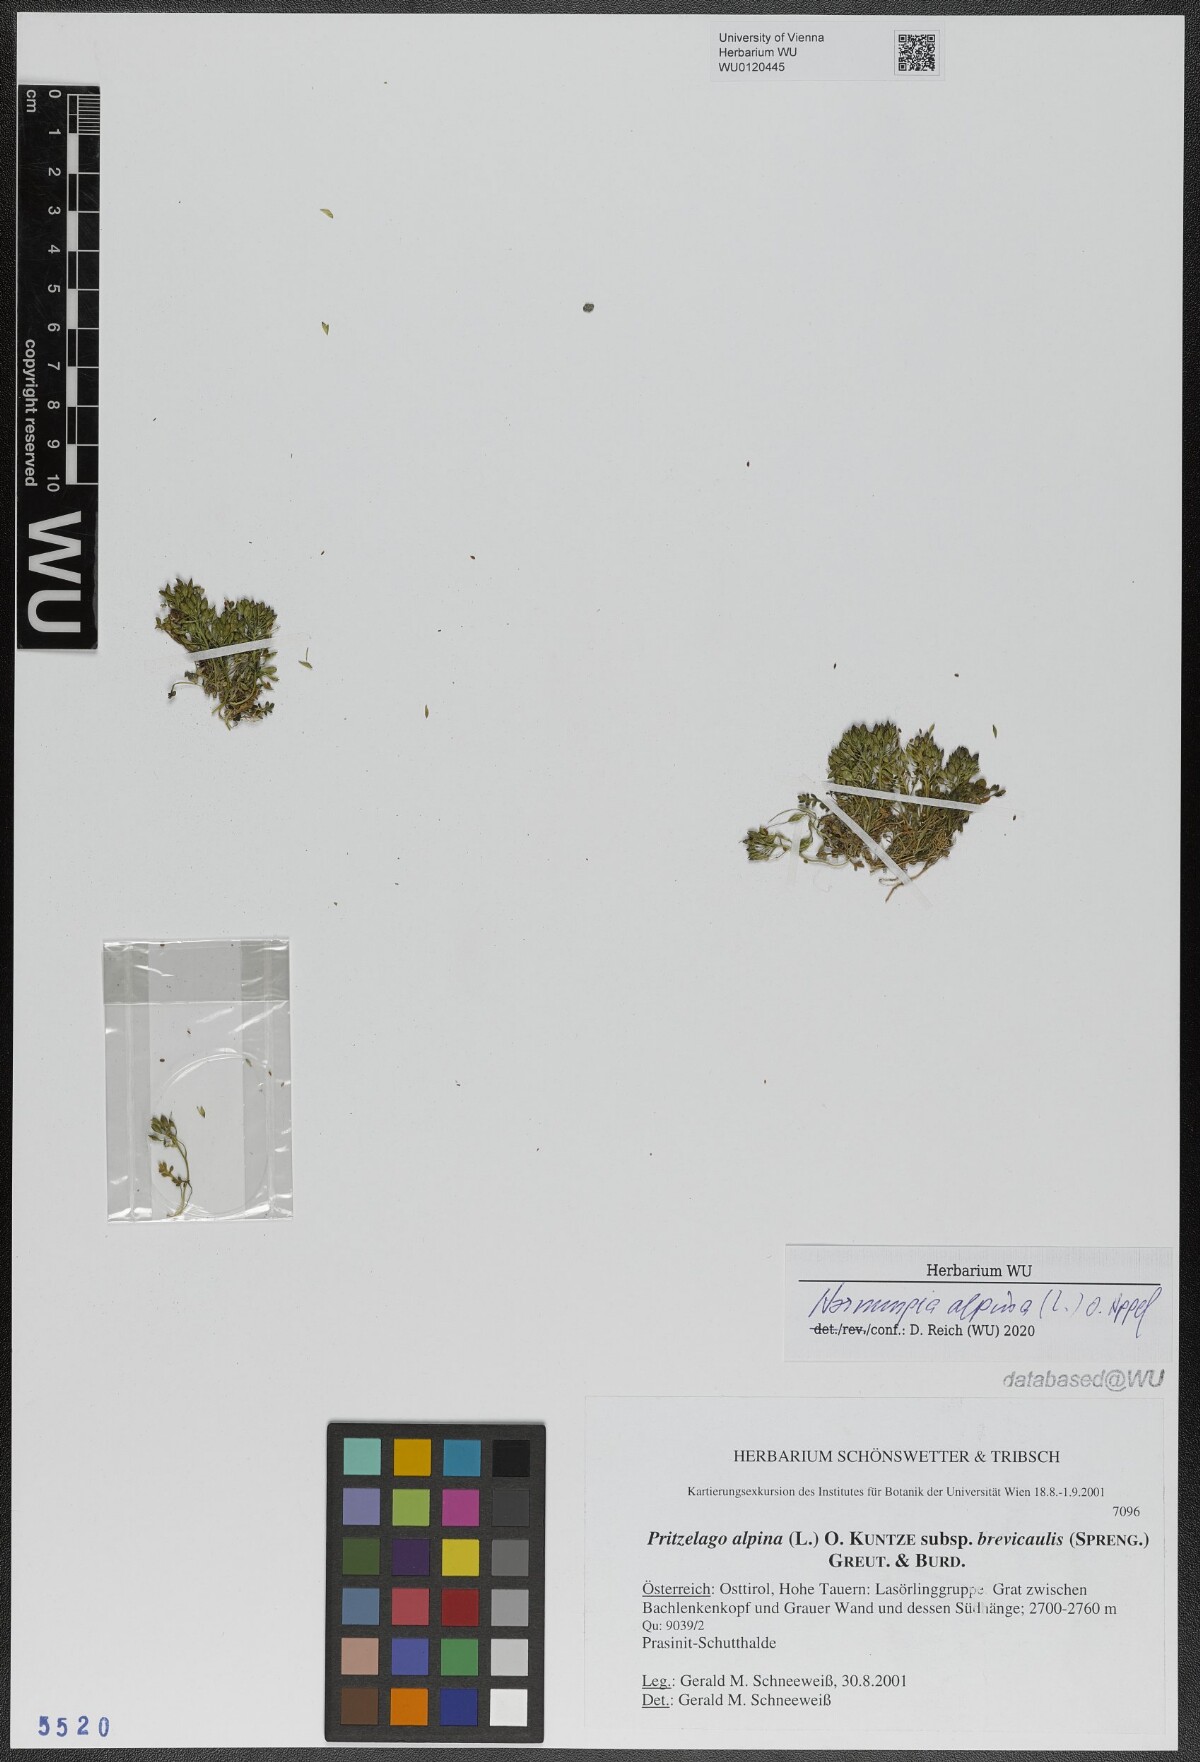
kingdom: Plantae
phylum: Tracheophyta
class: Magnoliopsida
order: Brassicales
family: Brassicaceae
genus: Hornungia
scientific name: Hornungia alpina
